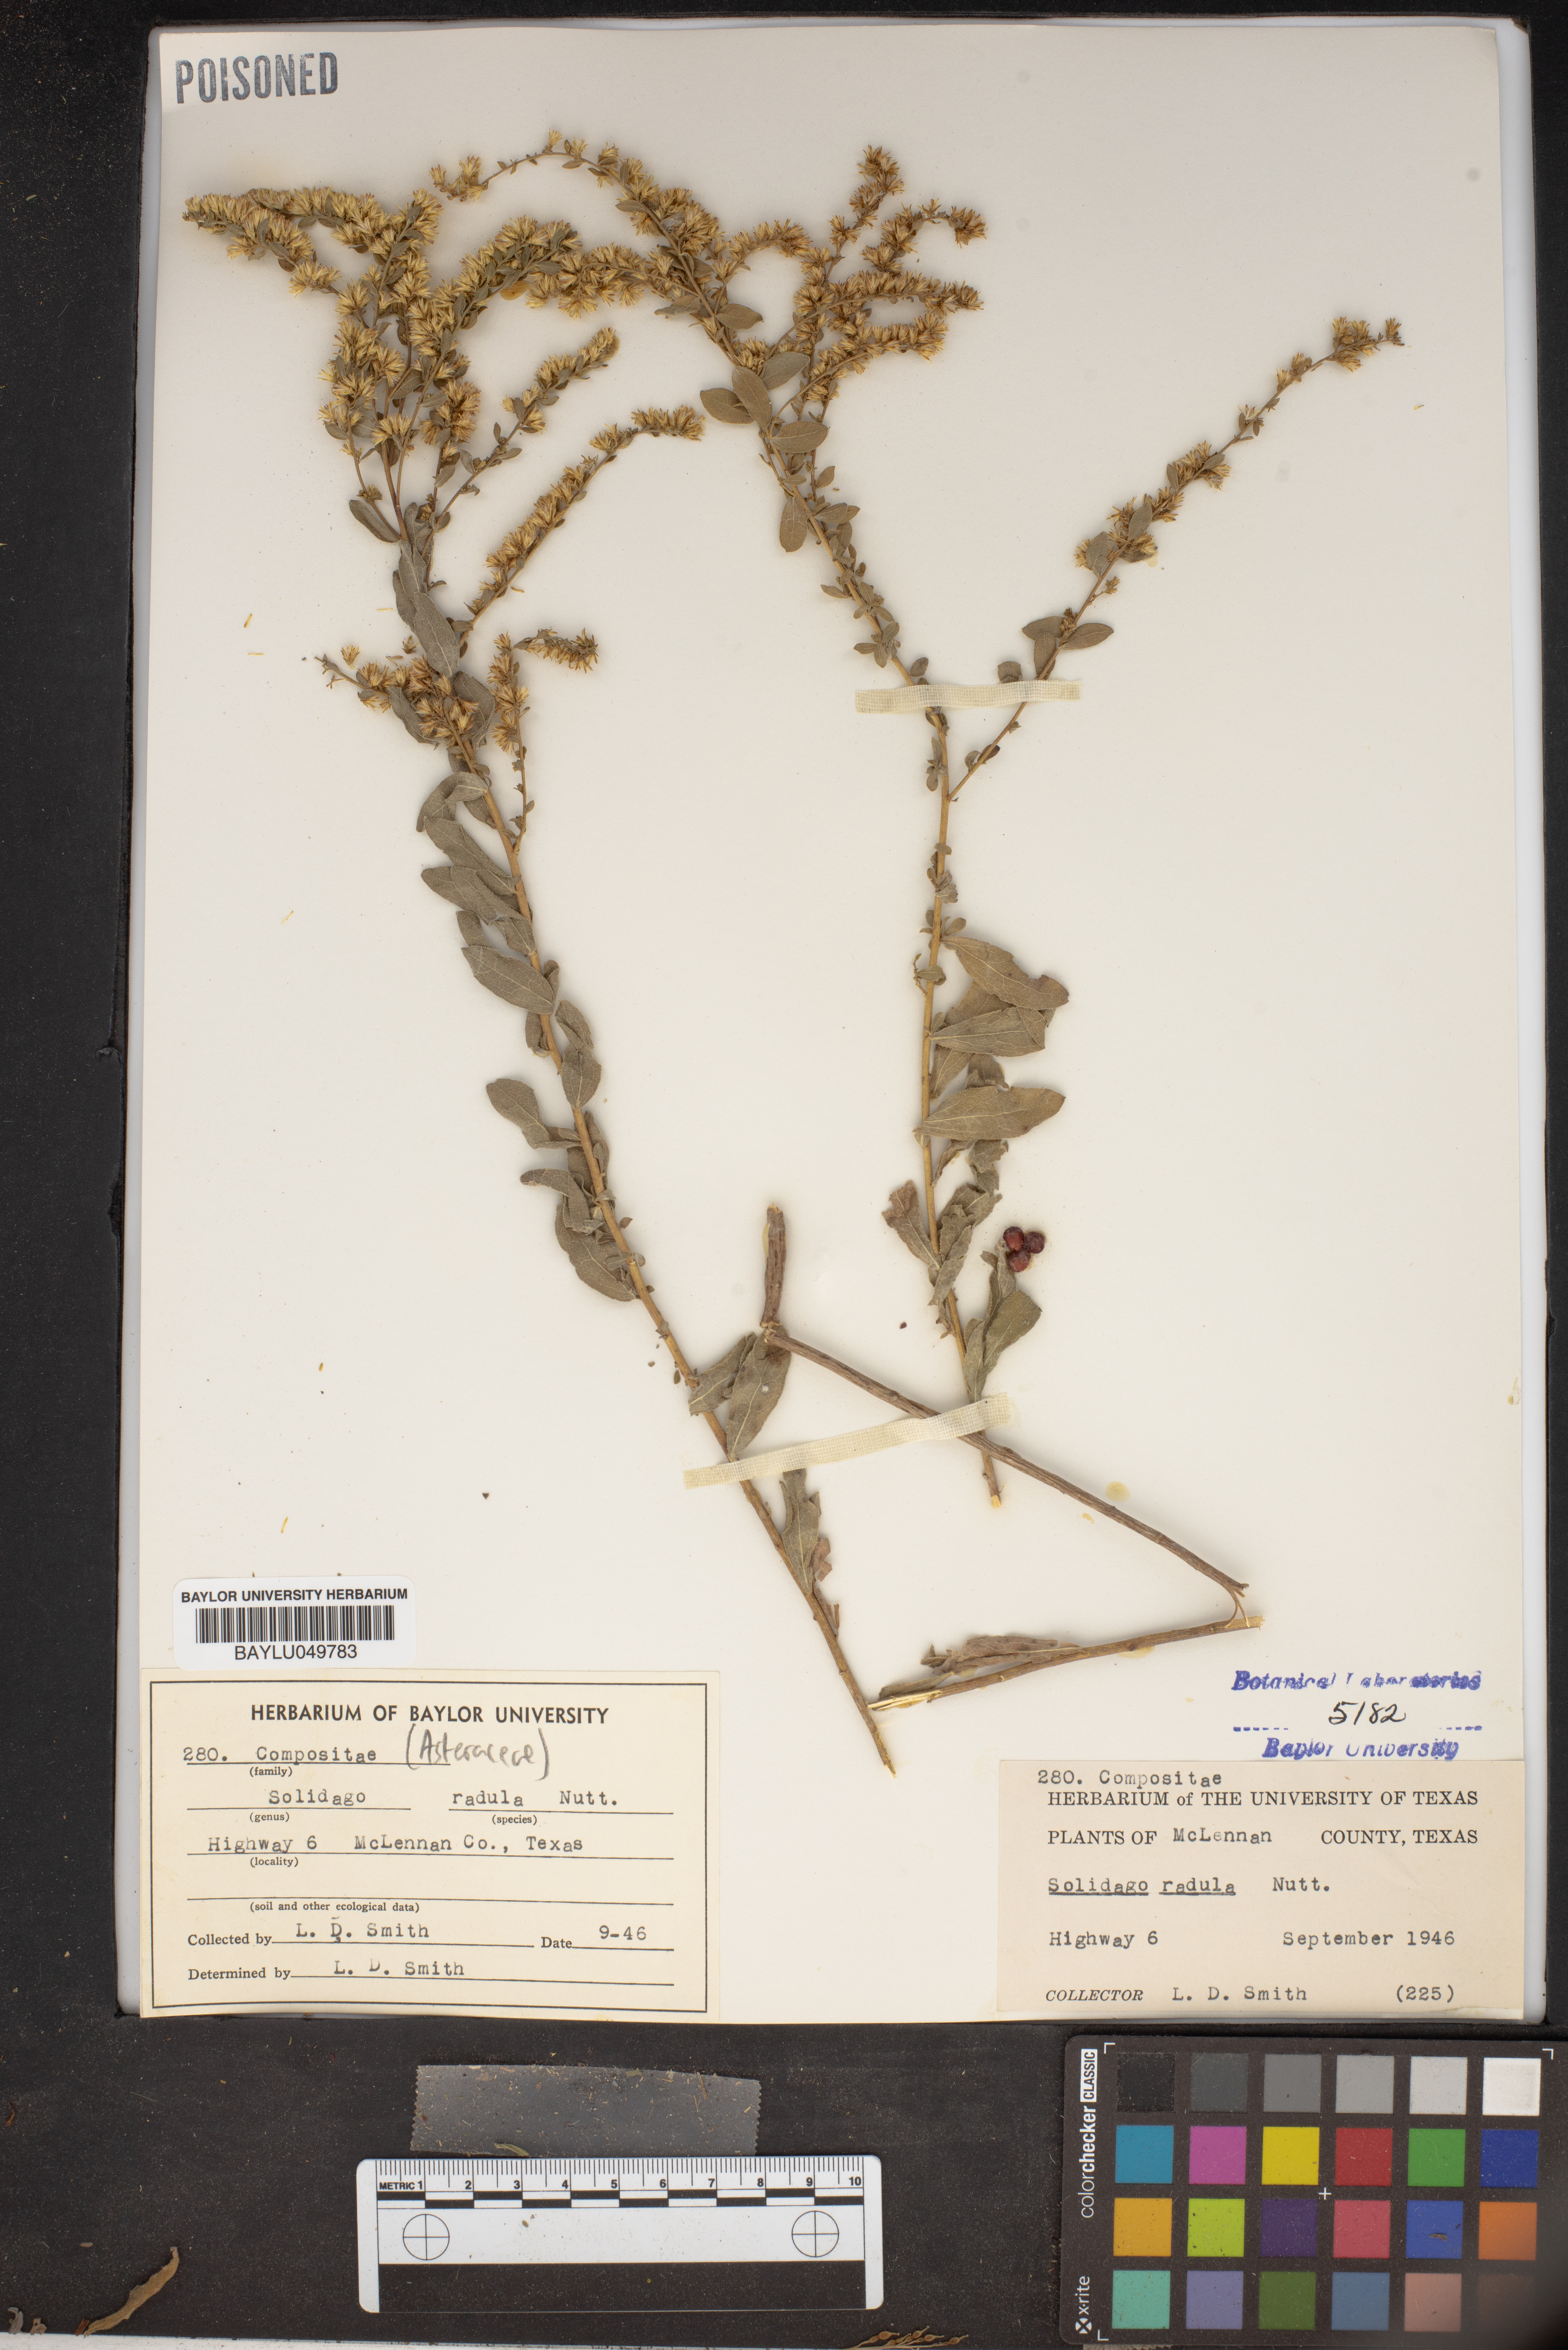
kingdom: Plantae
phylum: Tracheophyta
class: Magnoliopsida
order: Asterales
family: Asteraceae
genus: Solidago
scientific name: Solidago radula
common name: Western rough goldenrod
